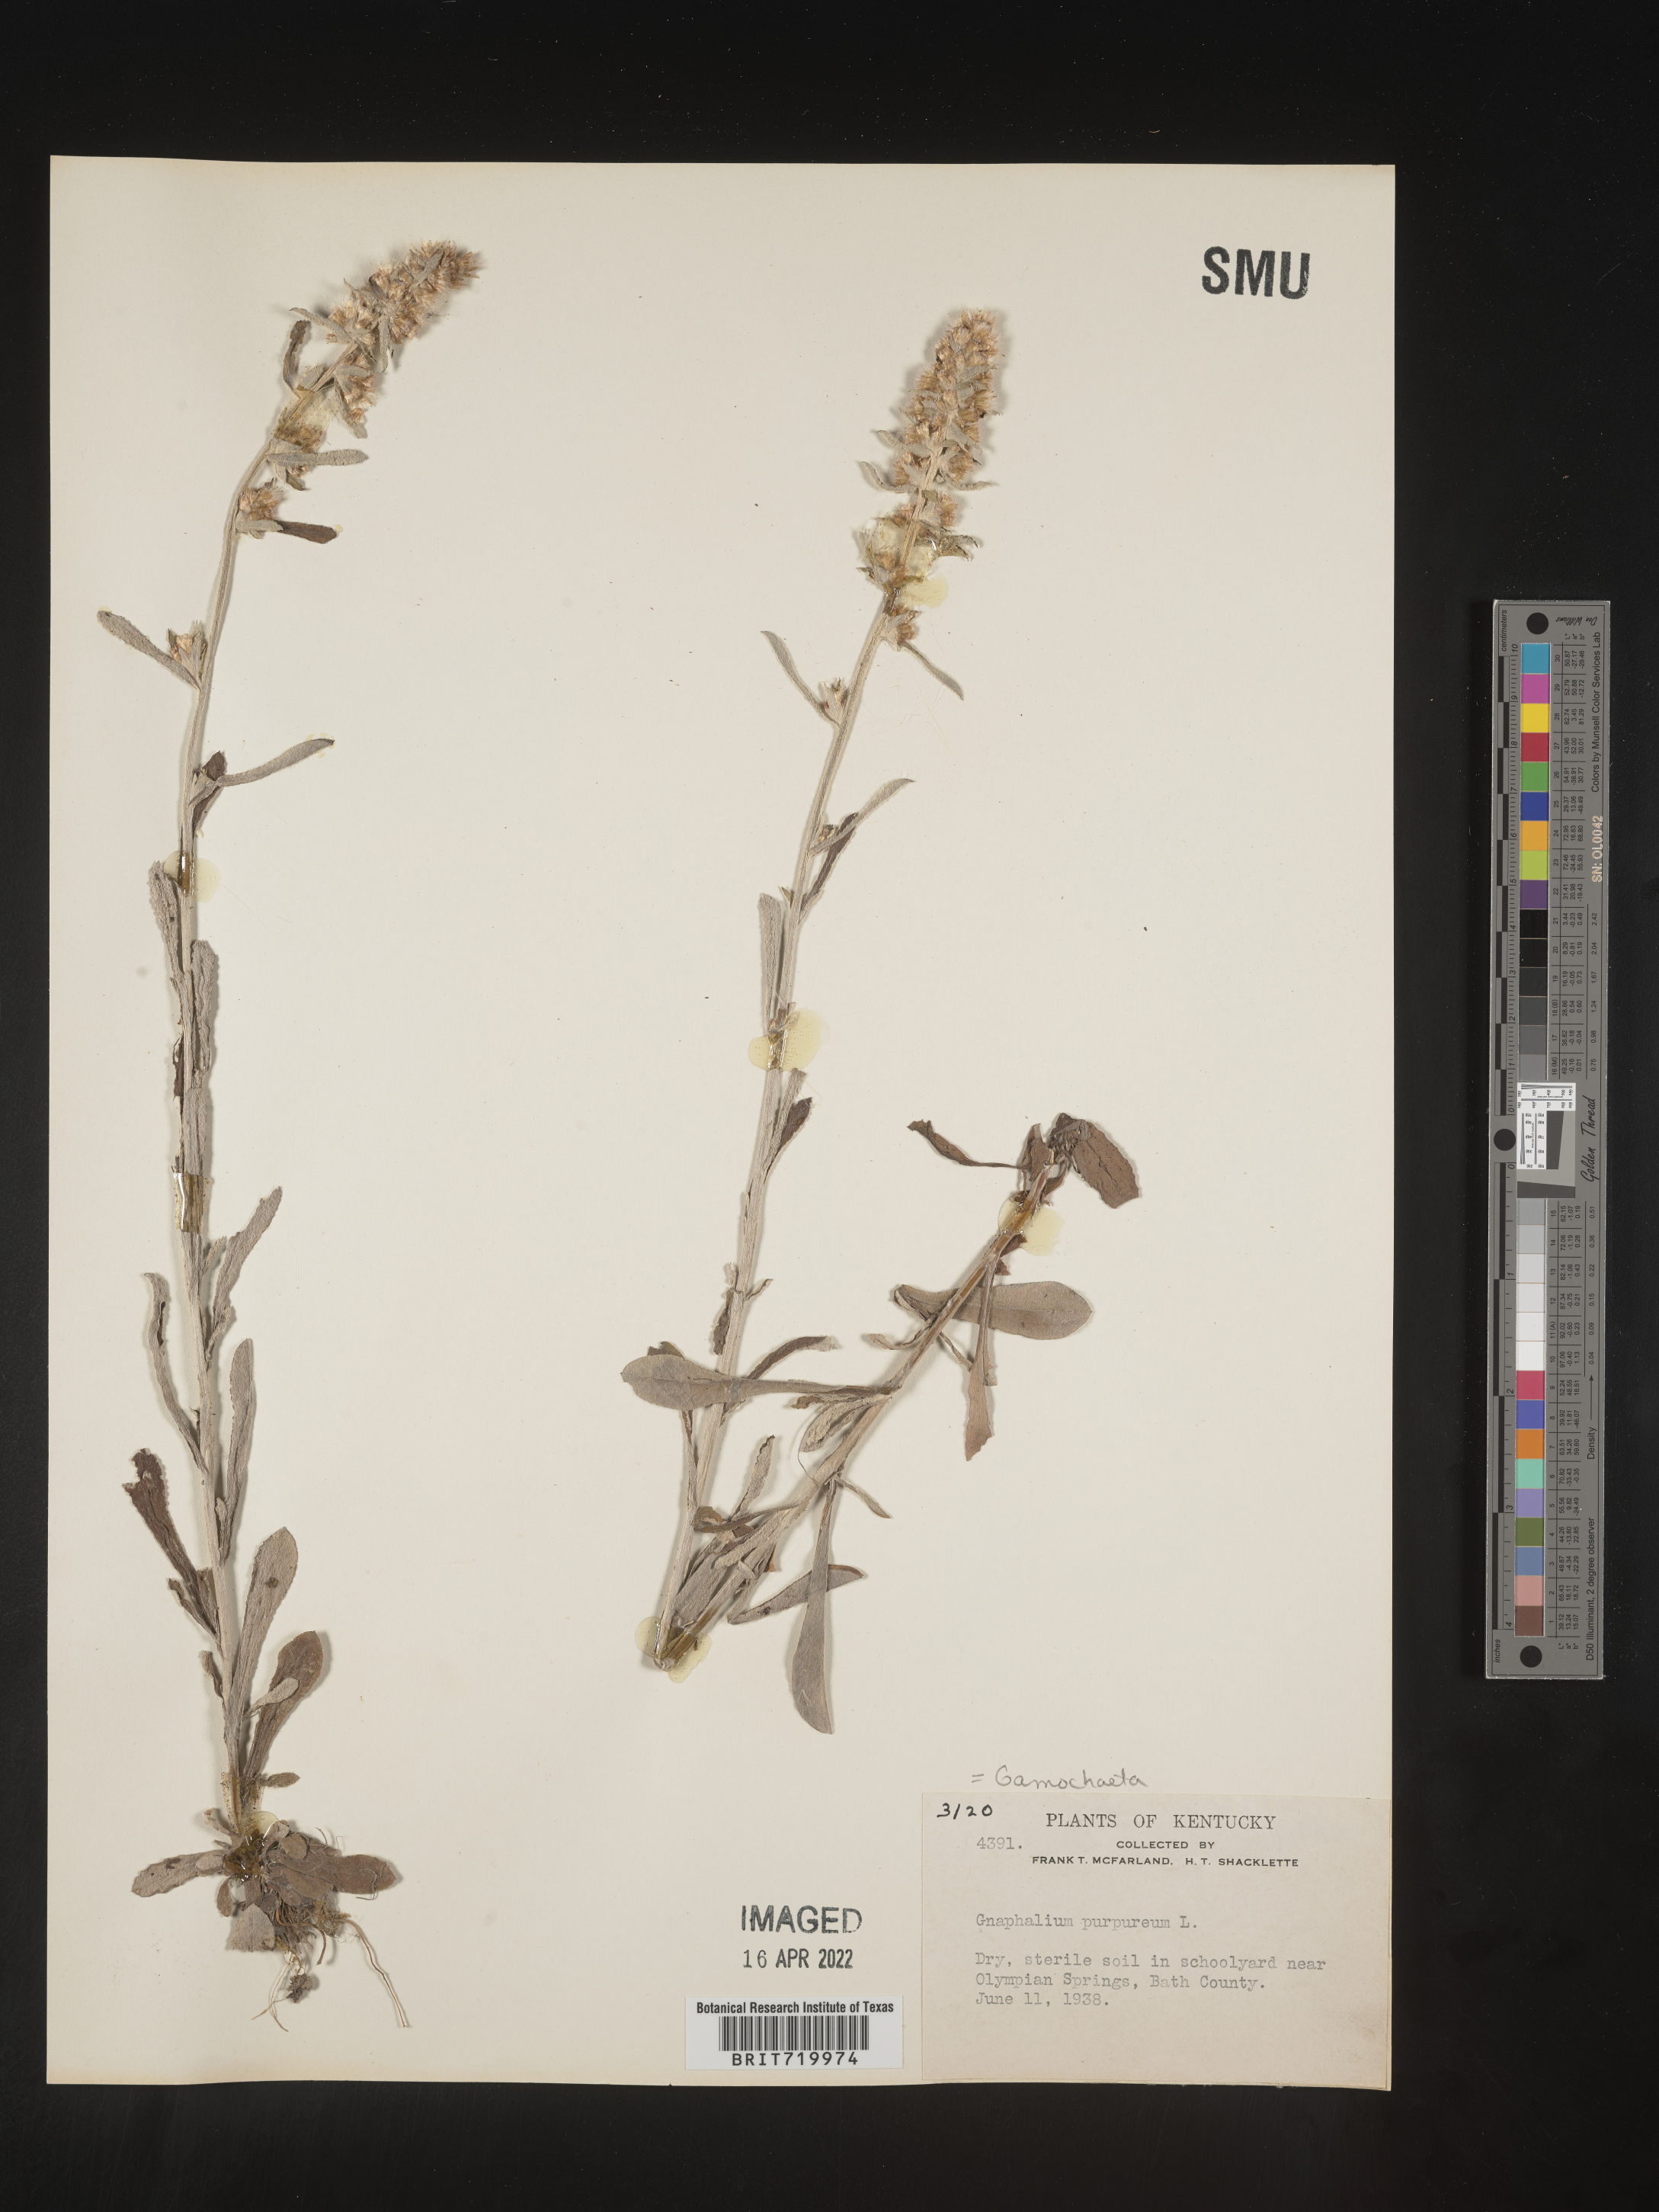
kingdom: Plantae
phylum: Tracheophyta
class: Magnoliopsida
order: Asterales
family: Asteraceae
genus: Gamochaeta
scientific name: Gamochaeta purpurea
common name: Purple cudweed
